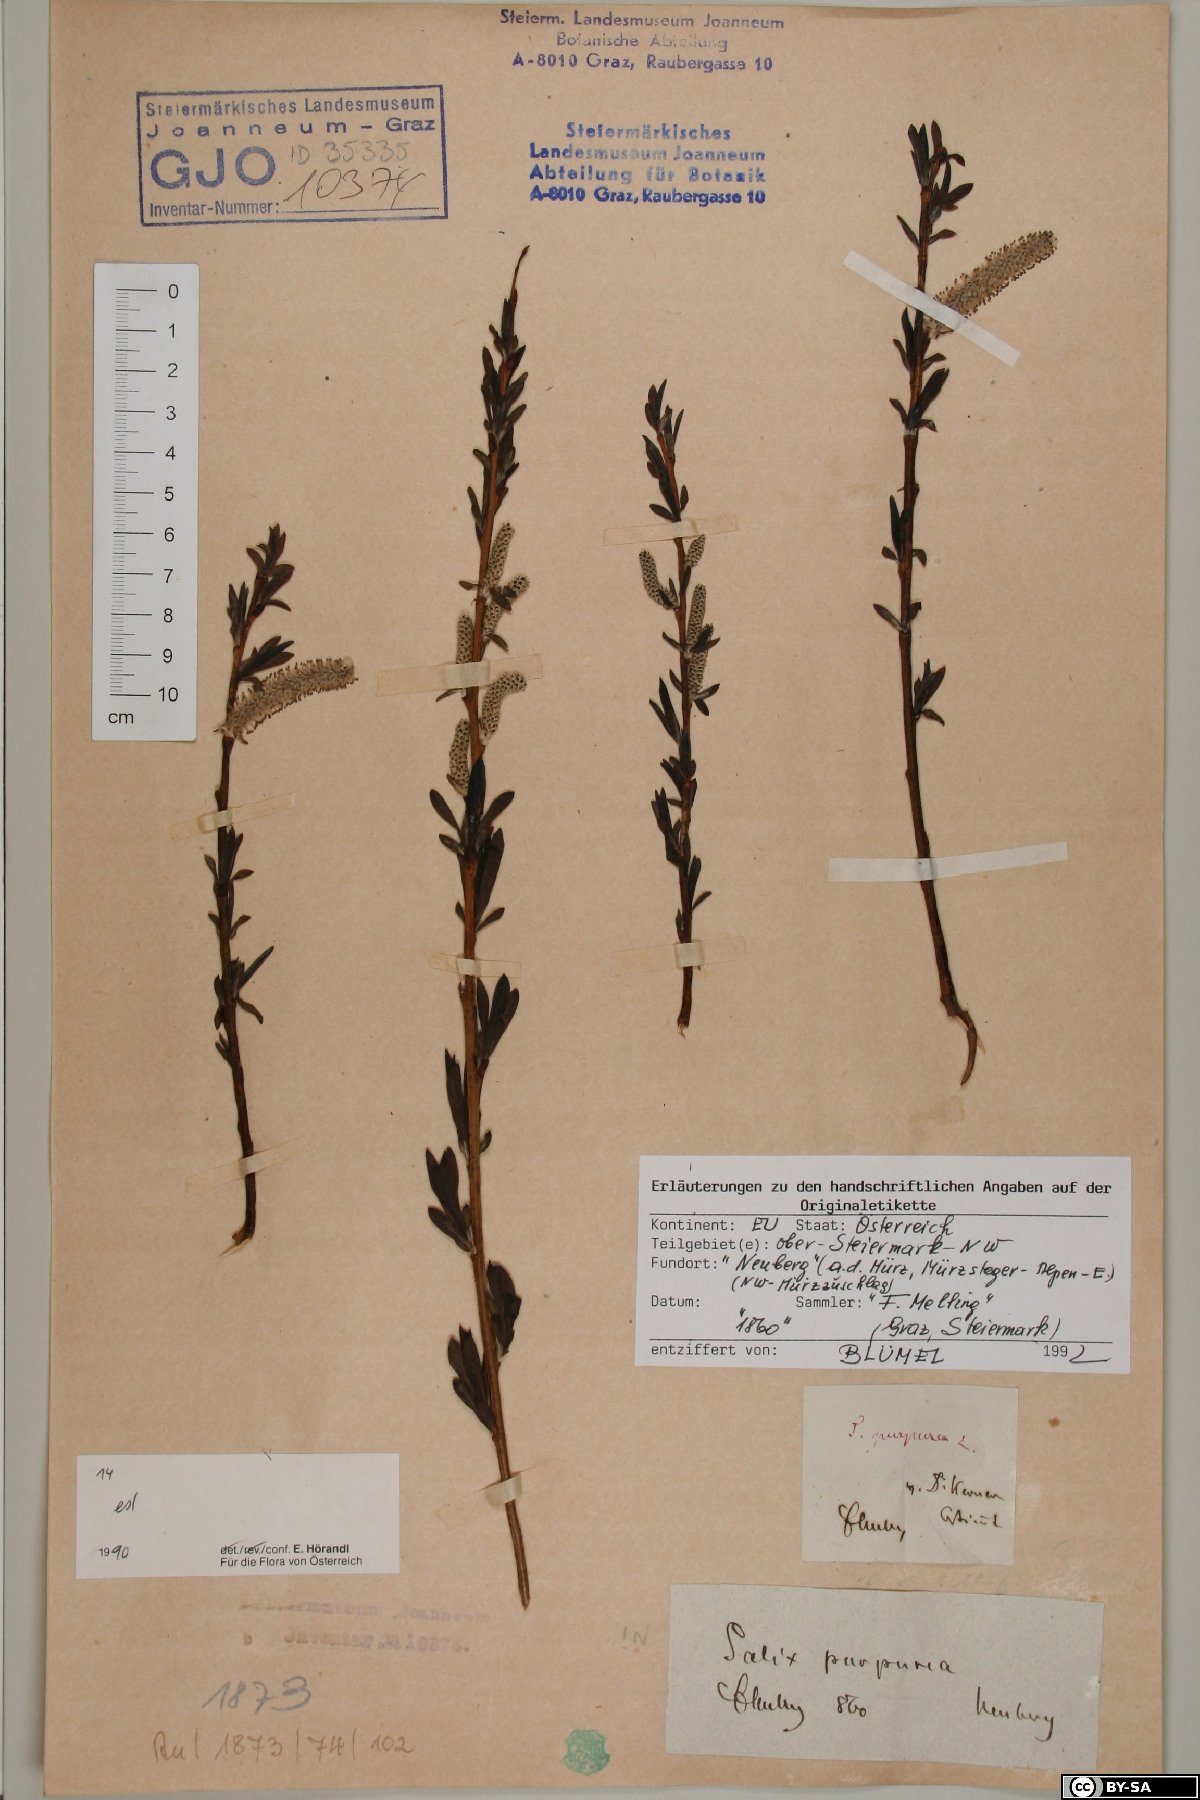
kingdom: Plantae
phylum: Tracheophyta
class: Magnoliopsida
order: Malpighiales
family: Salicaceae
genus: Salix
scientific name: Salix purpurea
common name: Purple willow
